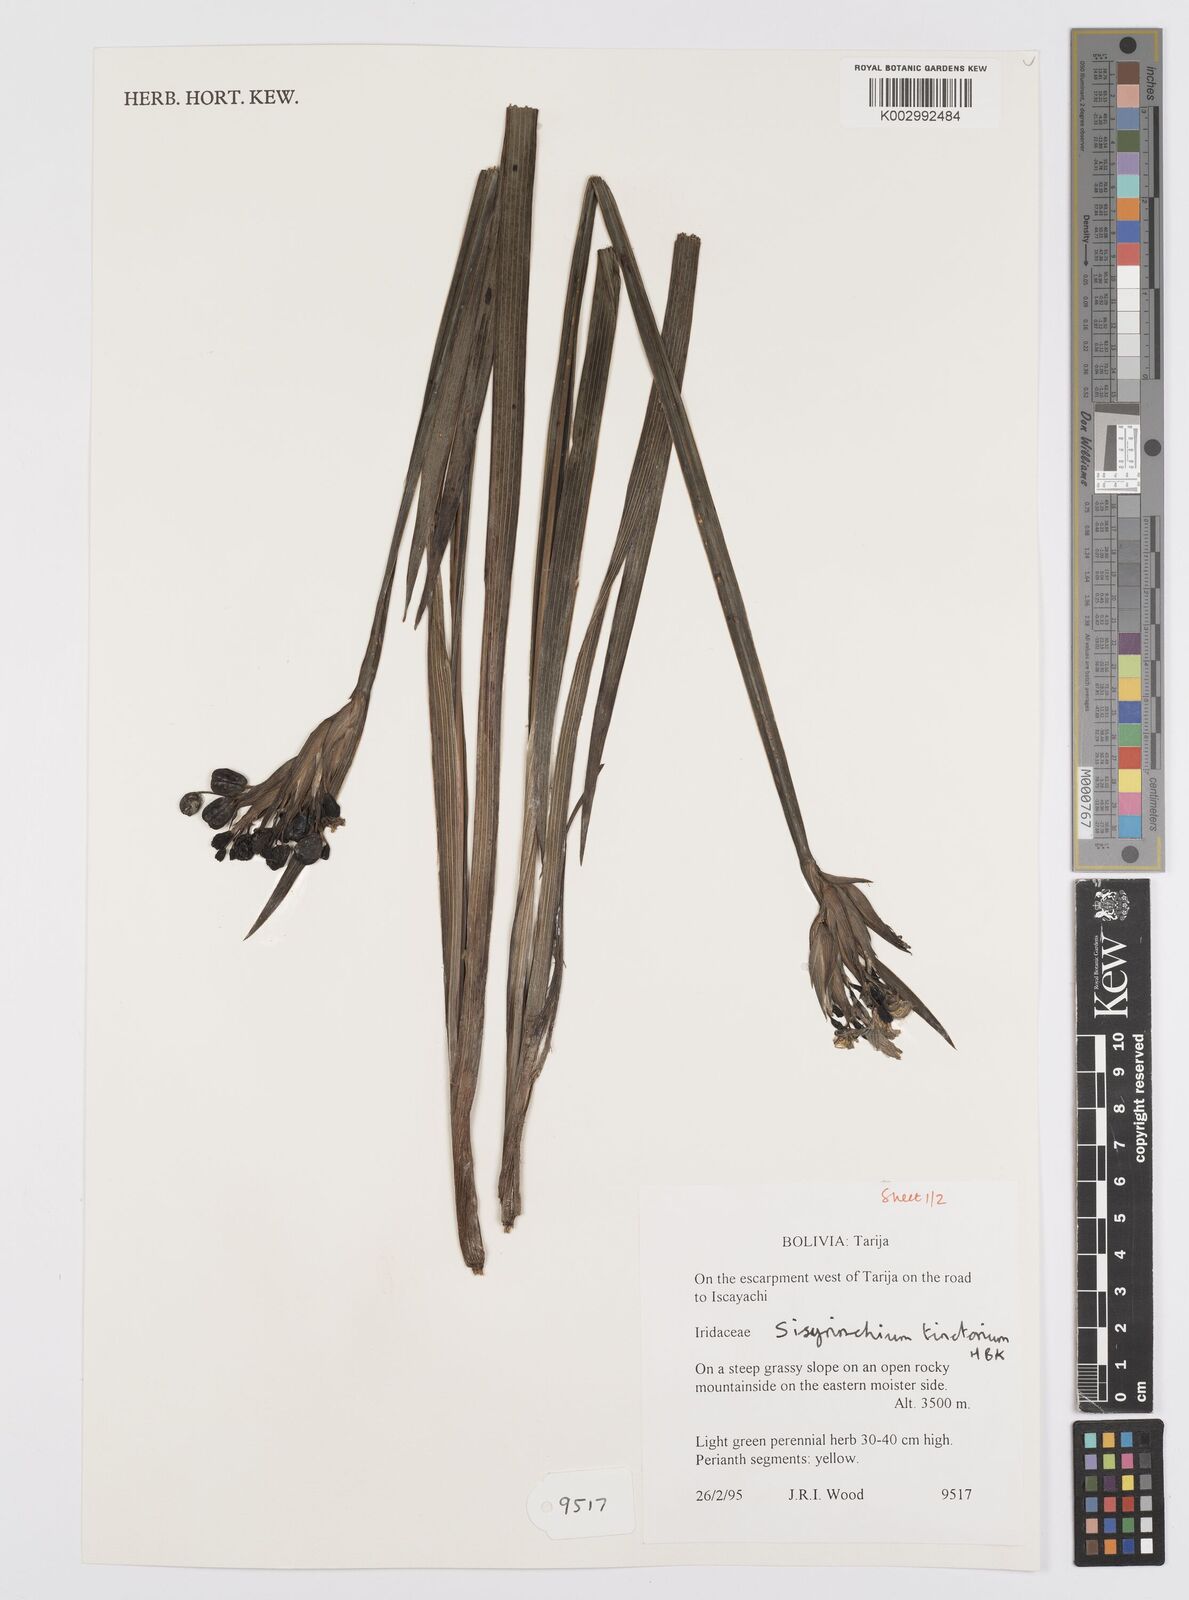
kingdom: Plantae
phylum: Tracheophyta
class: Liliopsida
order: Asparagales
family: Iridaceae
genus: Sisyrinchium
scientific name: Sisyrinchium tinctorium
